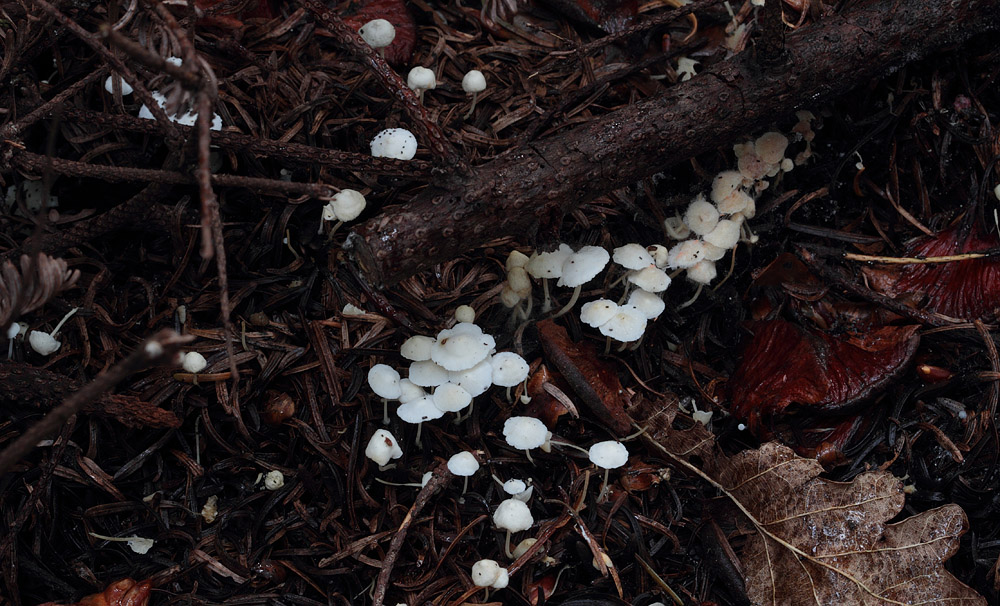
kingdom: Fungi
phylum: Basidiomycota
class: Agaricomycetes
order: Agaricales
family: Mycenaceae
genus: Hemimycena
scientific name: Hemimycena lactea
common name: mælkehvid huesvamp
